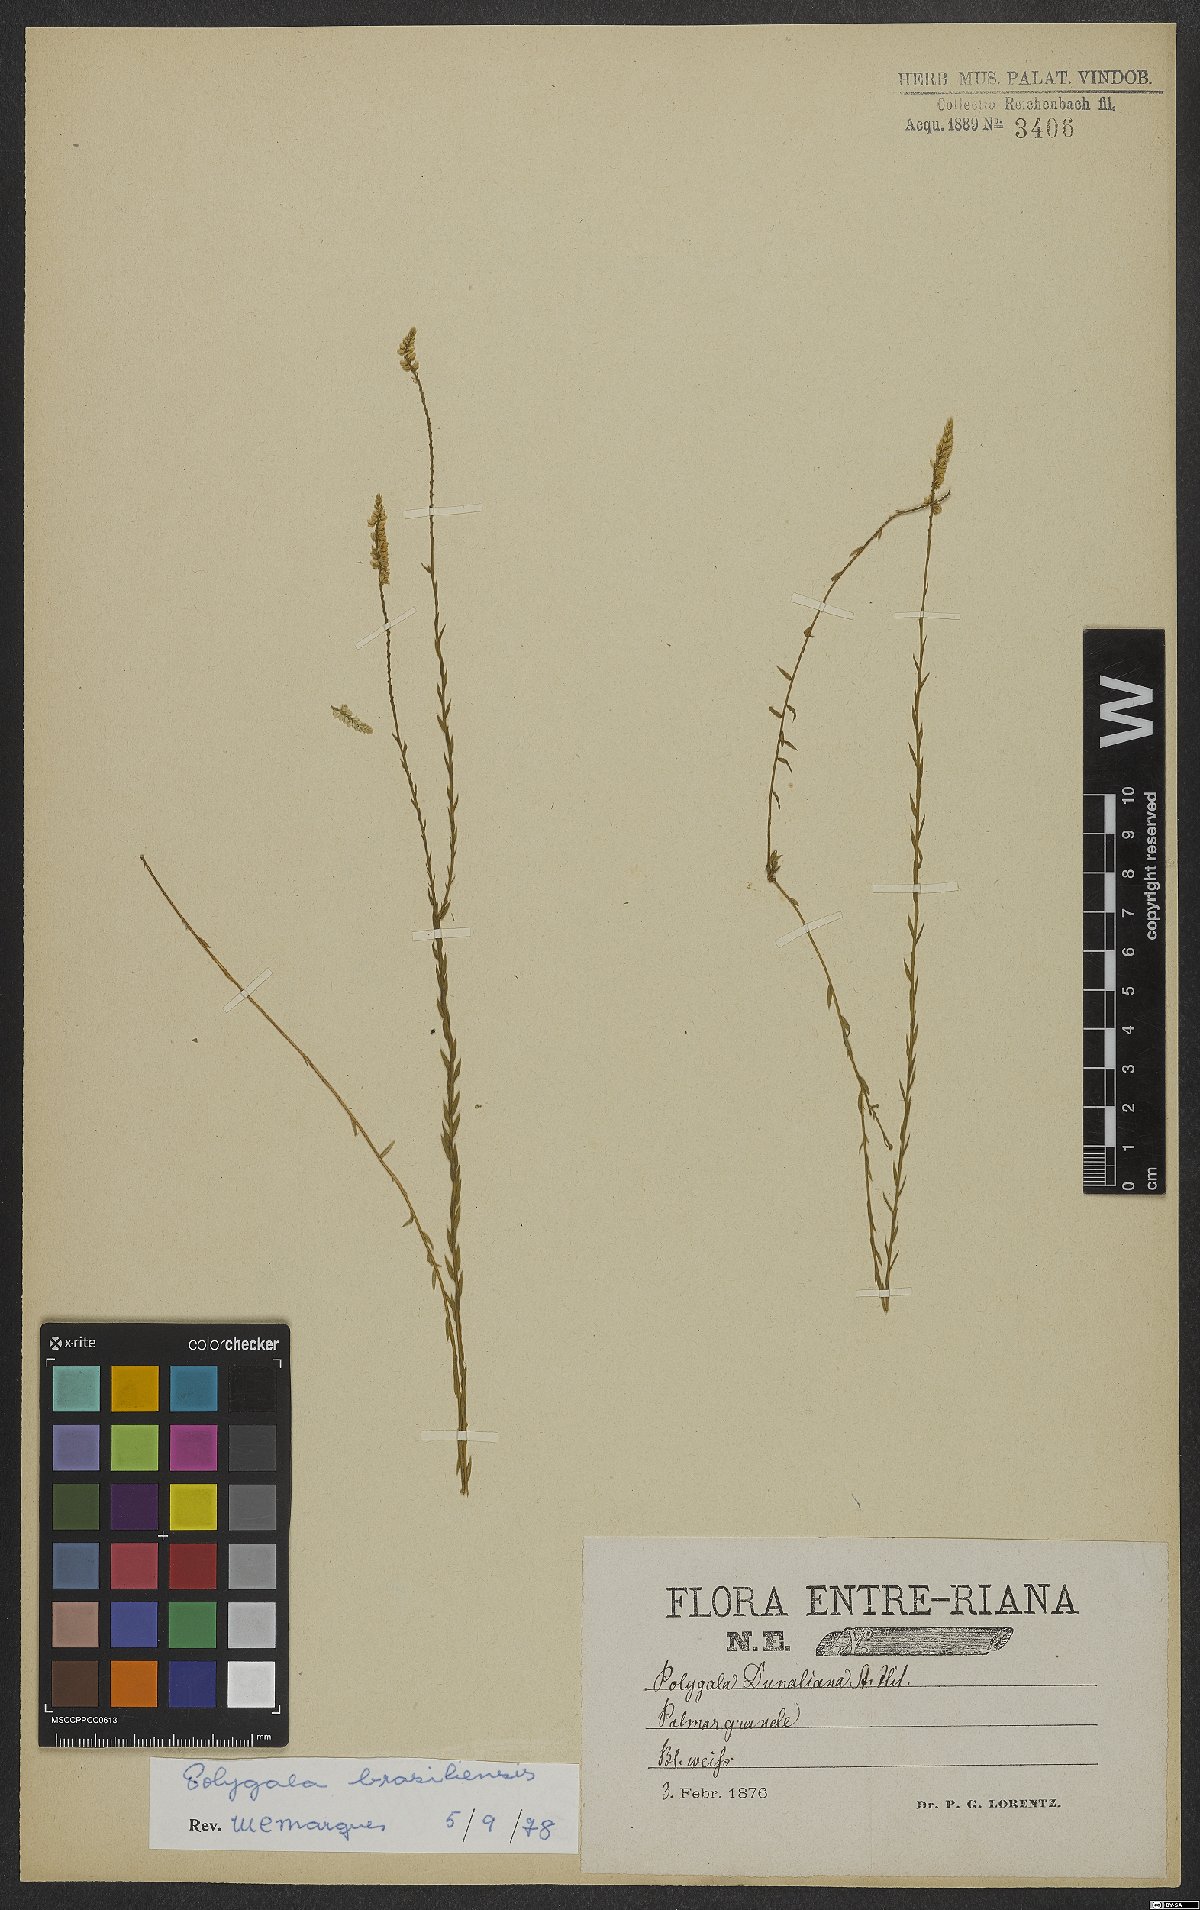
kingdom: Plantae
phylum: Tracheophyta
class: Magnoliopsida
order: Fabales
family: Polygalaceae
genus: Polygala
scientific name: Polygala brasiliensis
